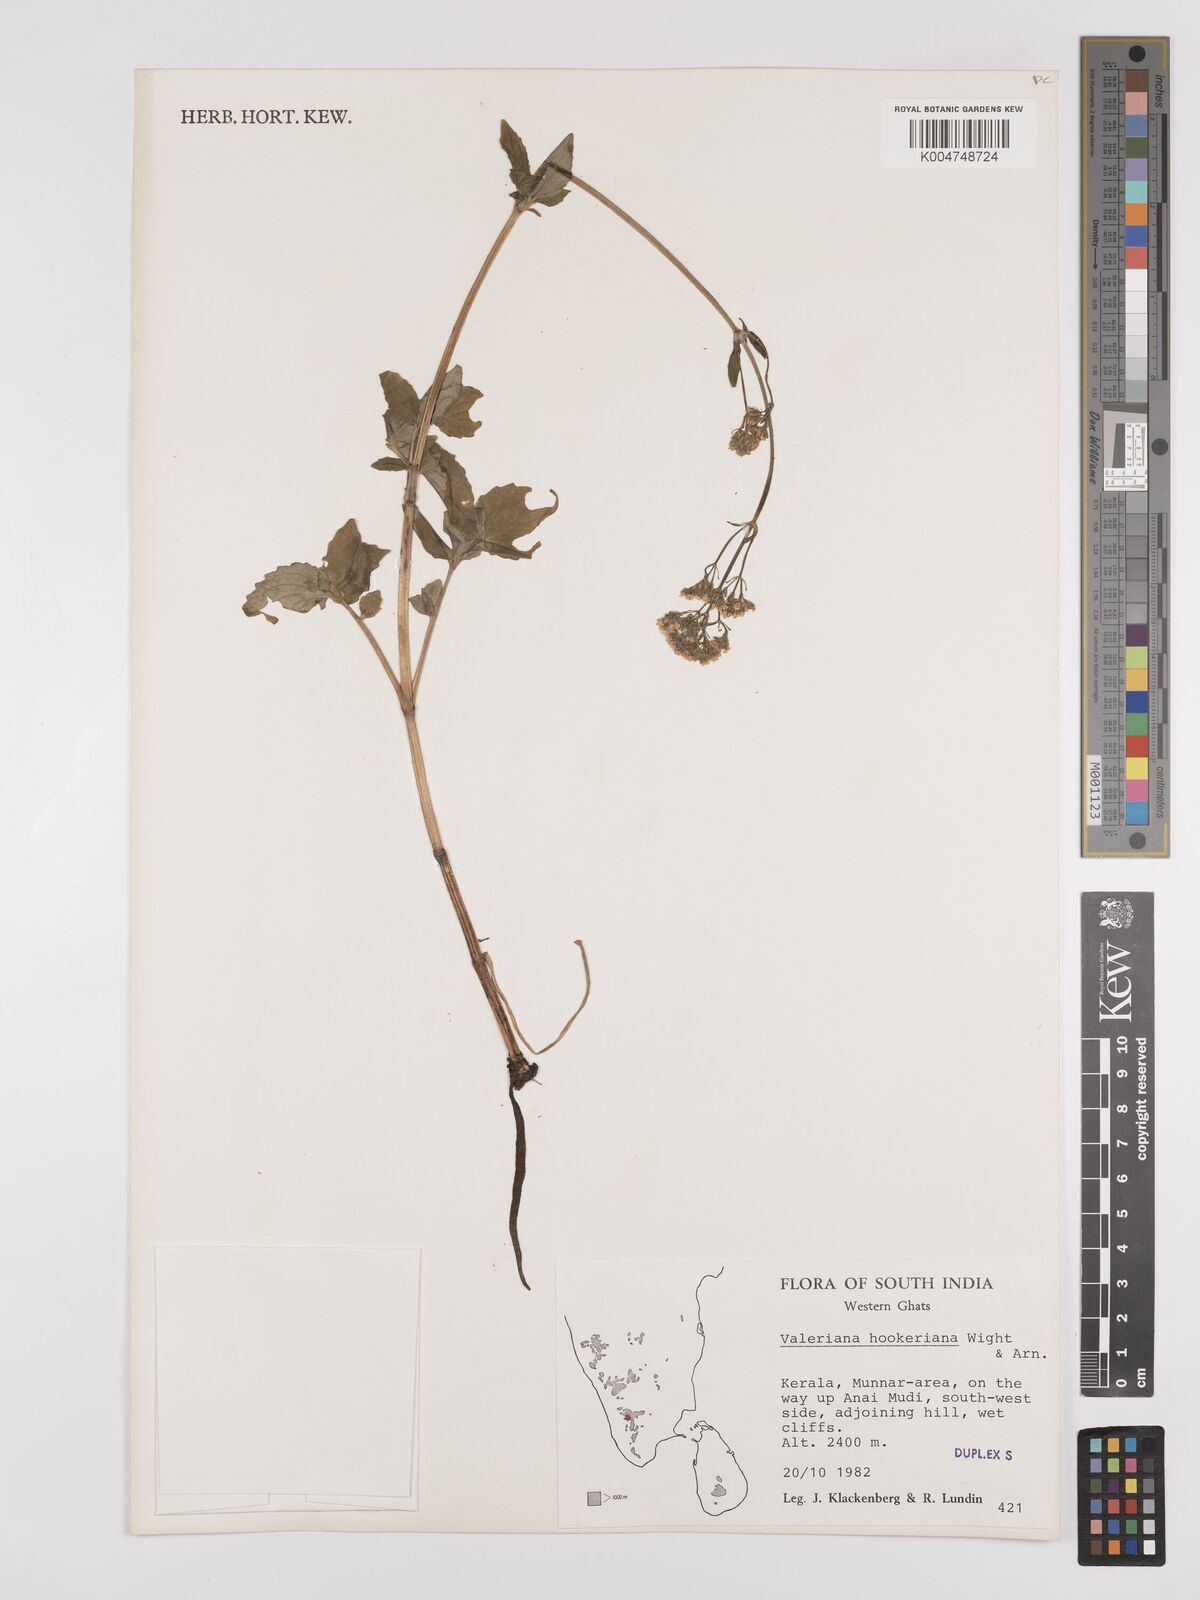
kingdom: Plantae
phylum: Tracheophyta
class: Magnoliopsida
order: Dipsacales
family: Caprifoliaceae
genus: Valeriana
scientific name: Valeriana
